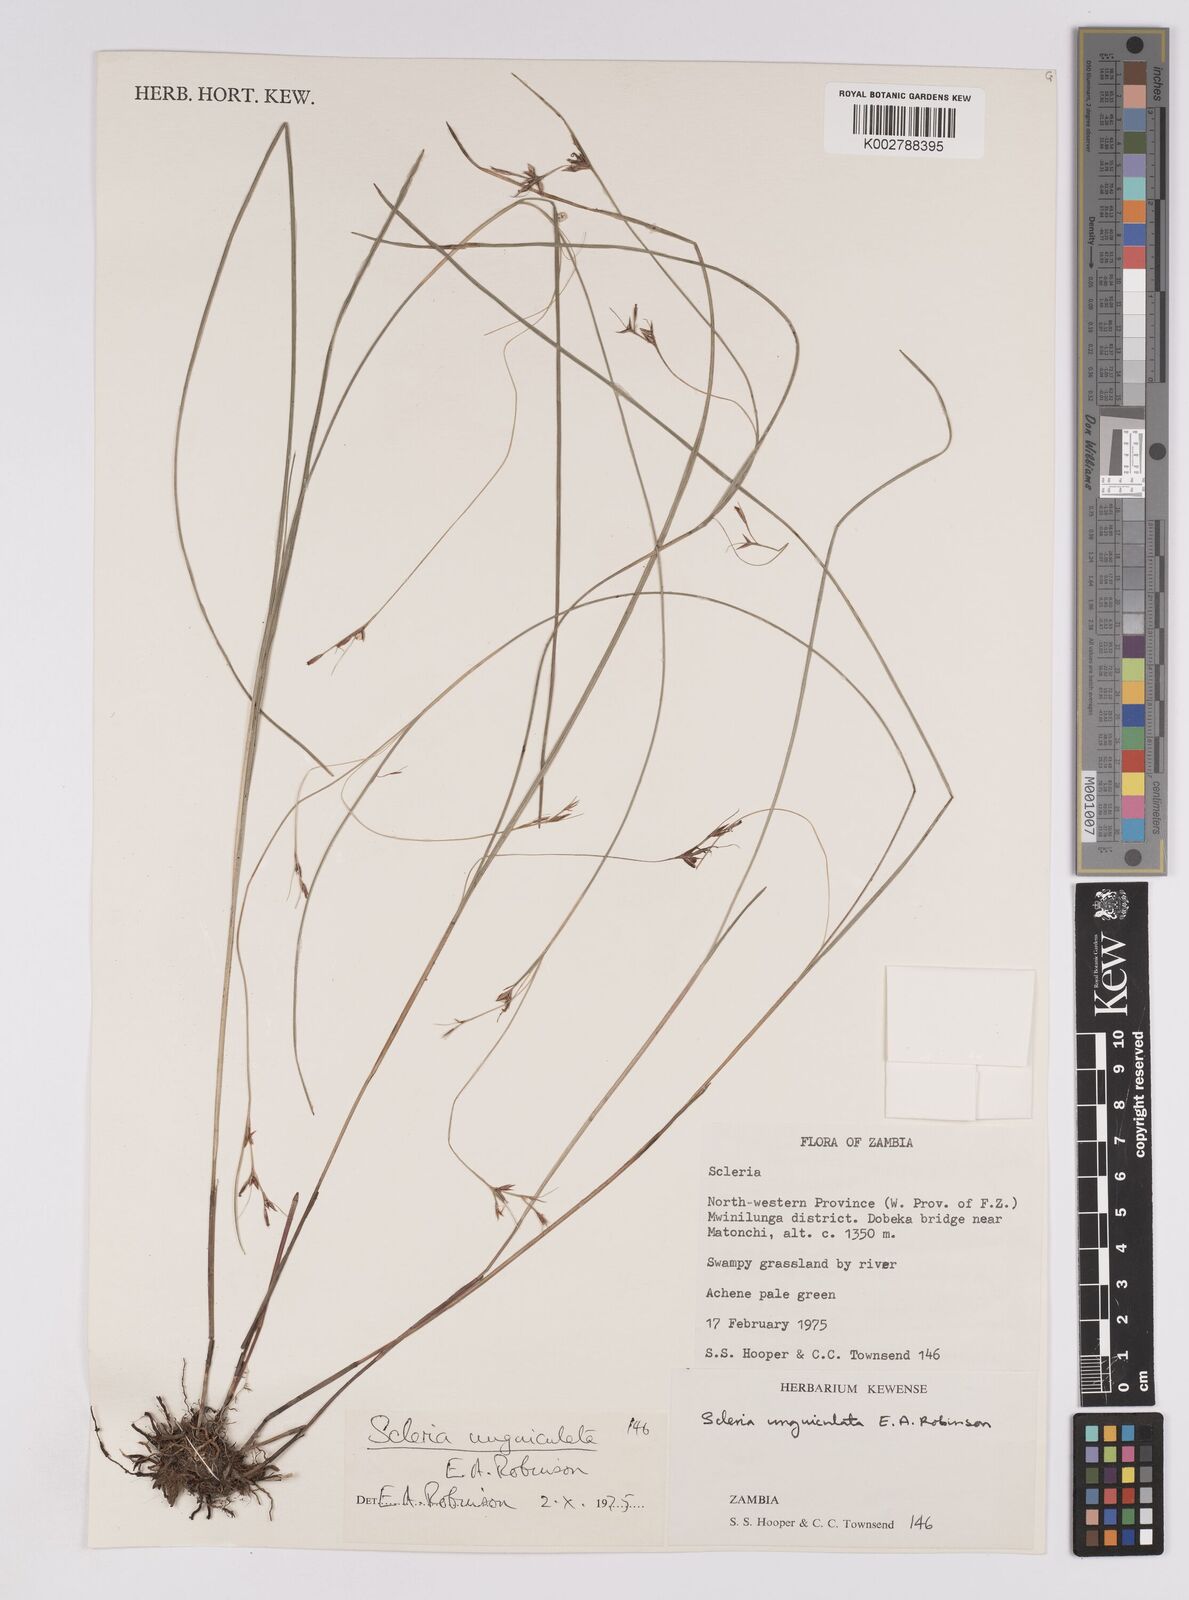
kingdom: Plantae
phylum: Tracheophyta
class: Liliopsida
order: Poales
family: Cyperaceae
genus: Scleria
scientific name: Scleria unguiculata
